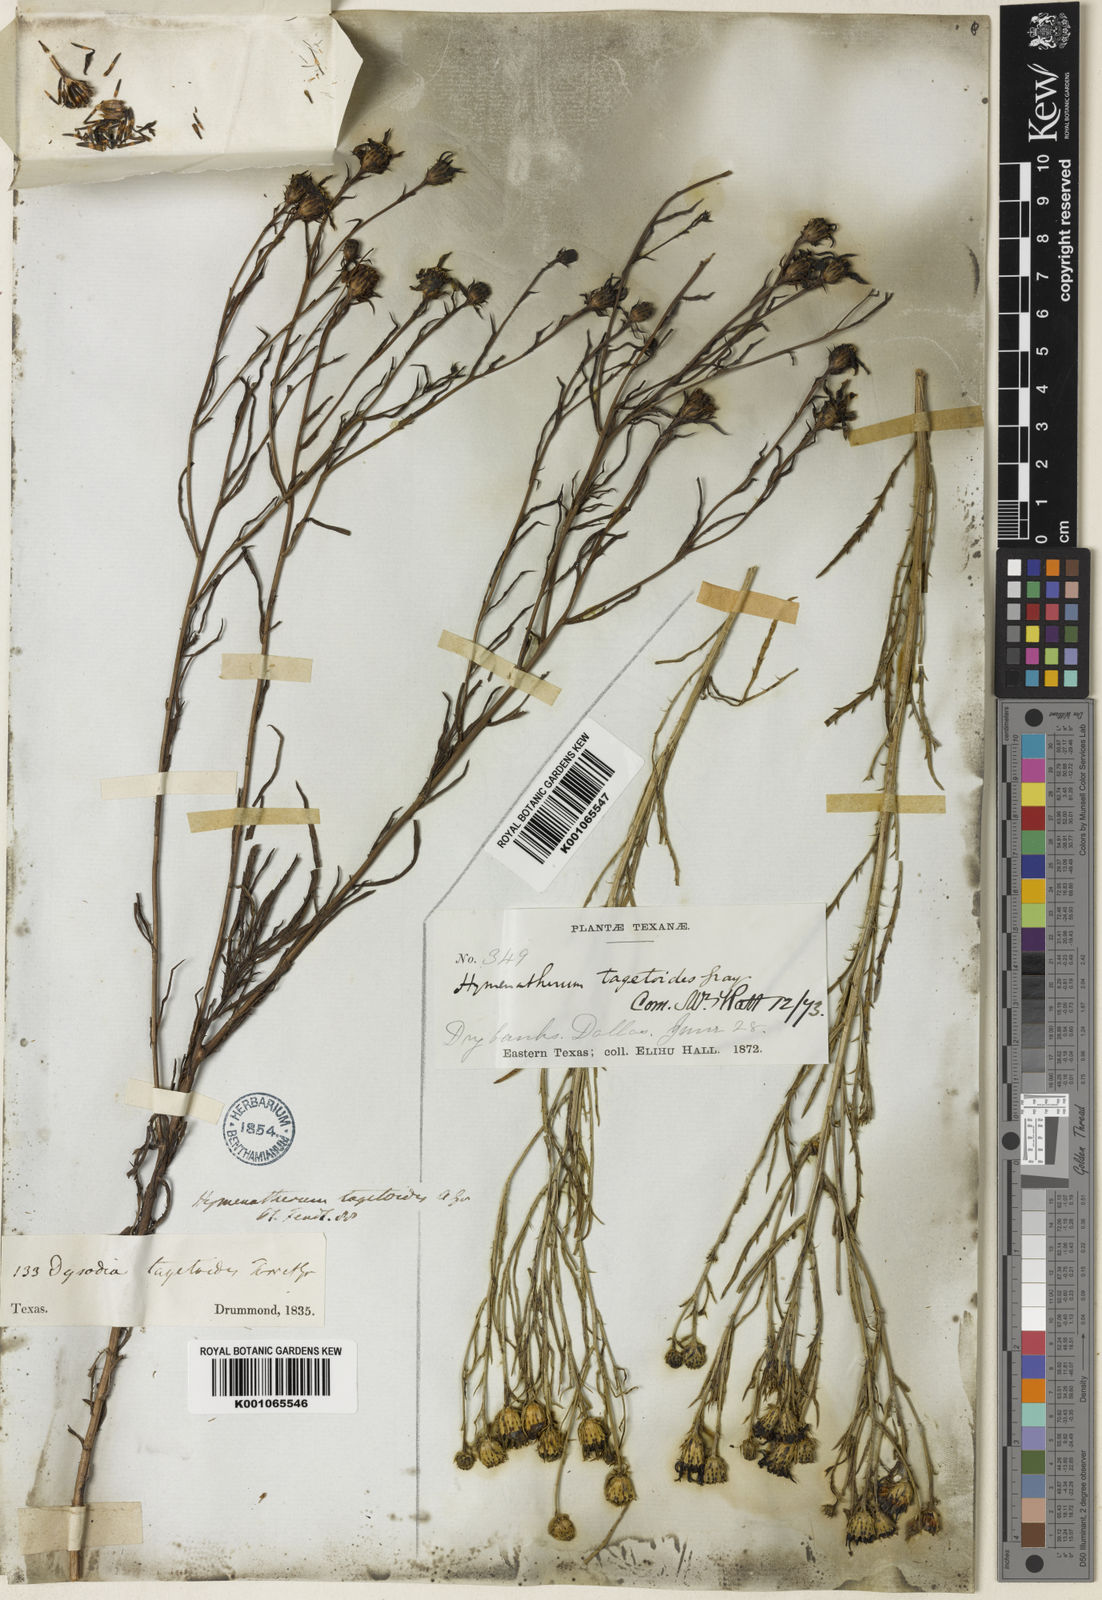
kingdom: Plantae
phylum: Tracheophyta
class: Magnoliopsida
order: Asterales
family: Asteraceae
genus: Dysodiopsis
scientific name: Dysodiopsis tagetoides
